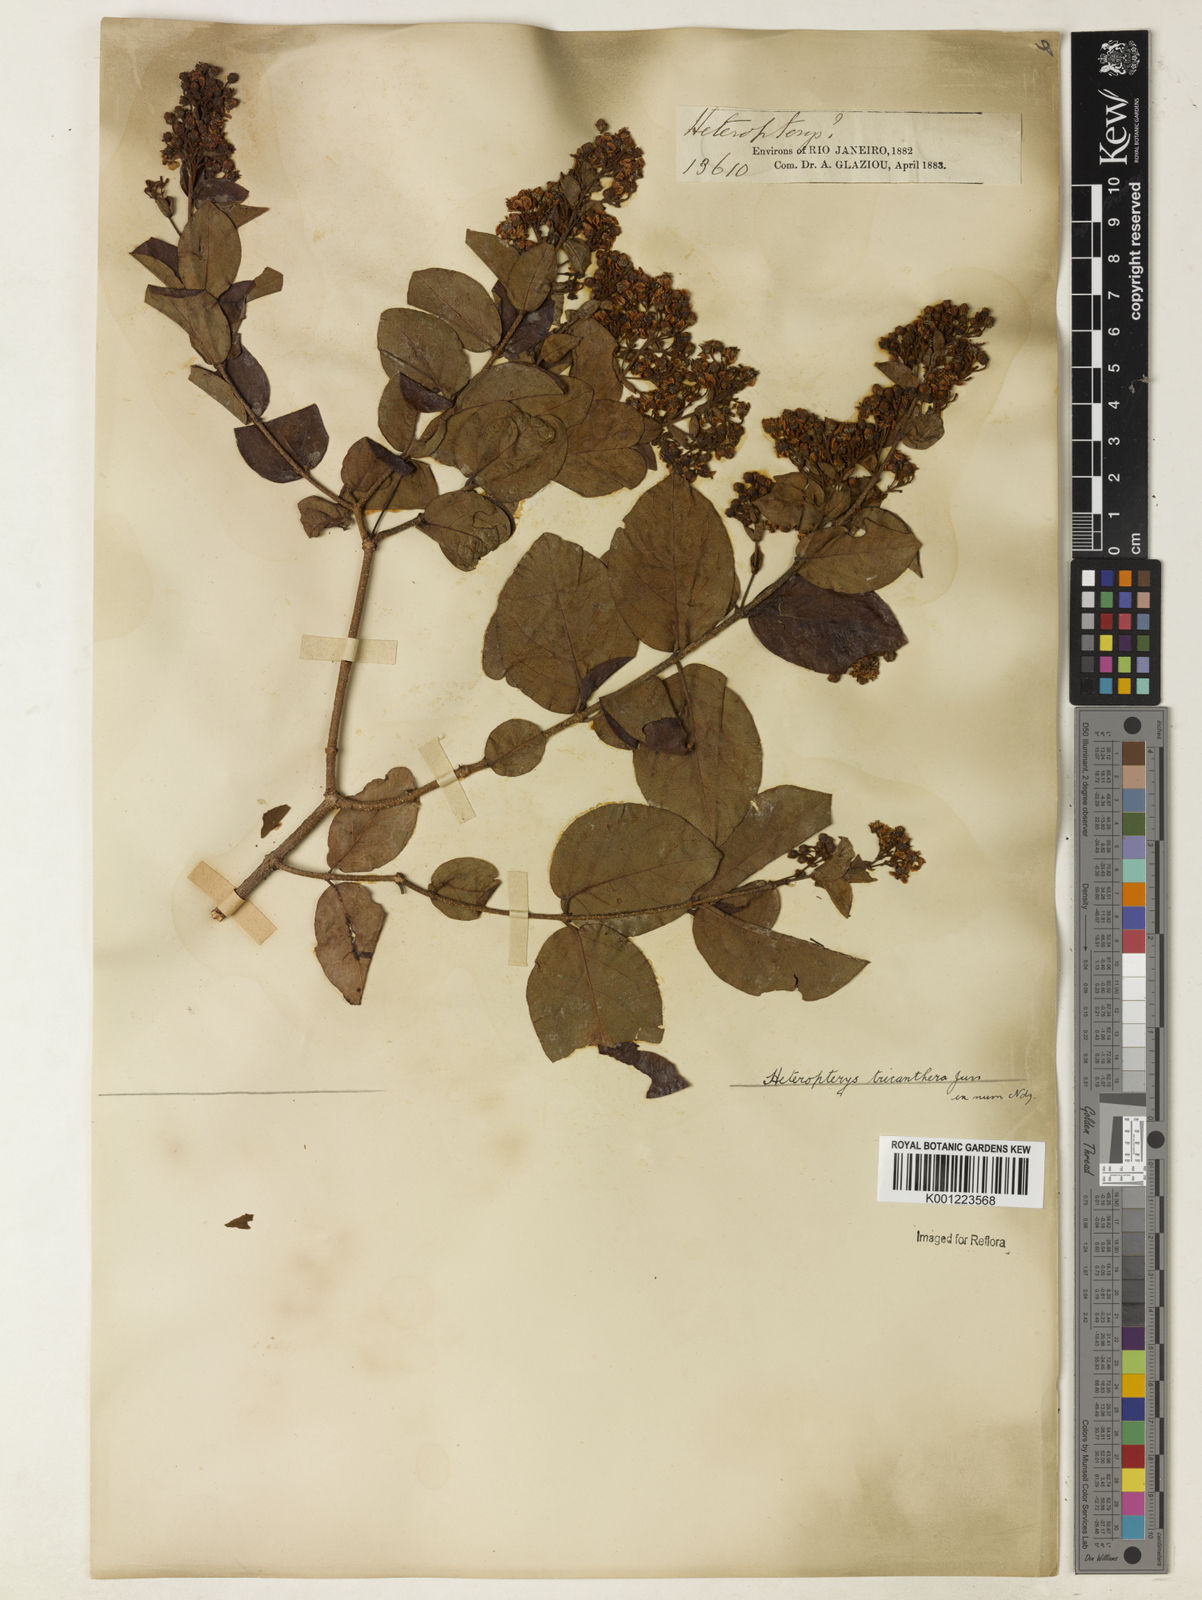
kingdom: Plantae
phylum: Tracheophyta
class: Magnoliopsida
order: Malpighiales
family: Malpighiaceae
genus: Heteropterys
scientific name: Heteropterys trichanthera
